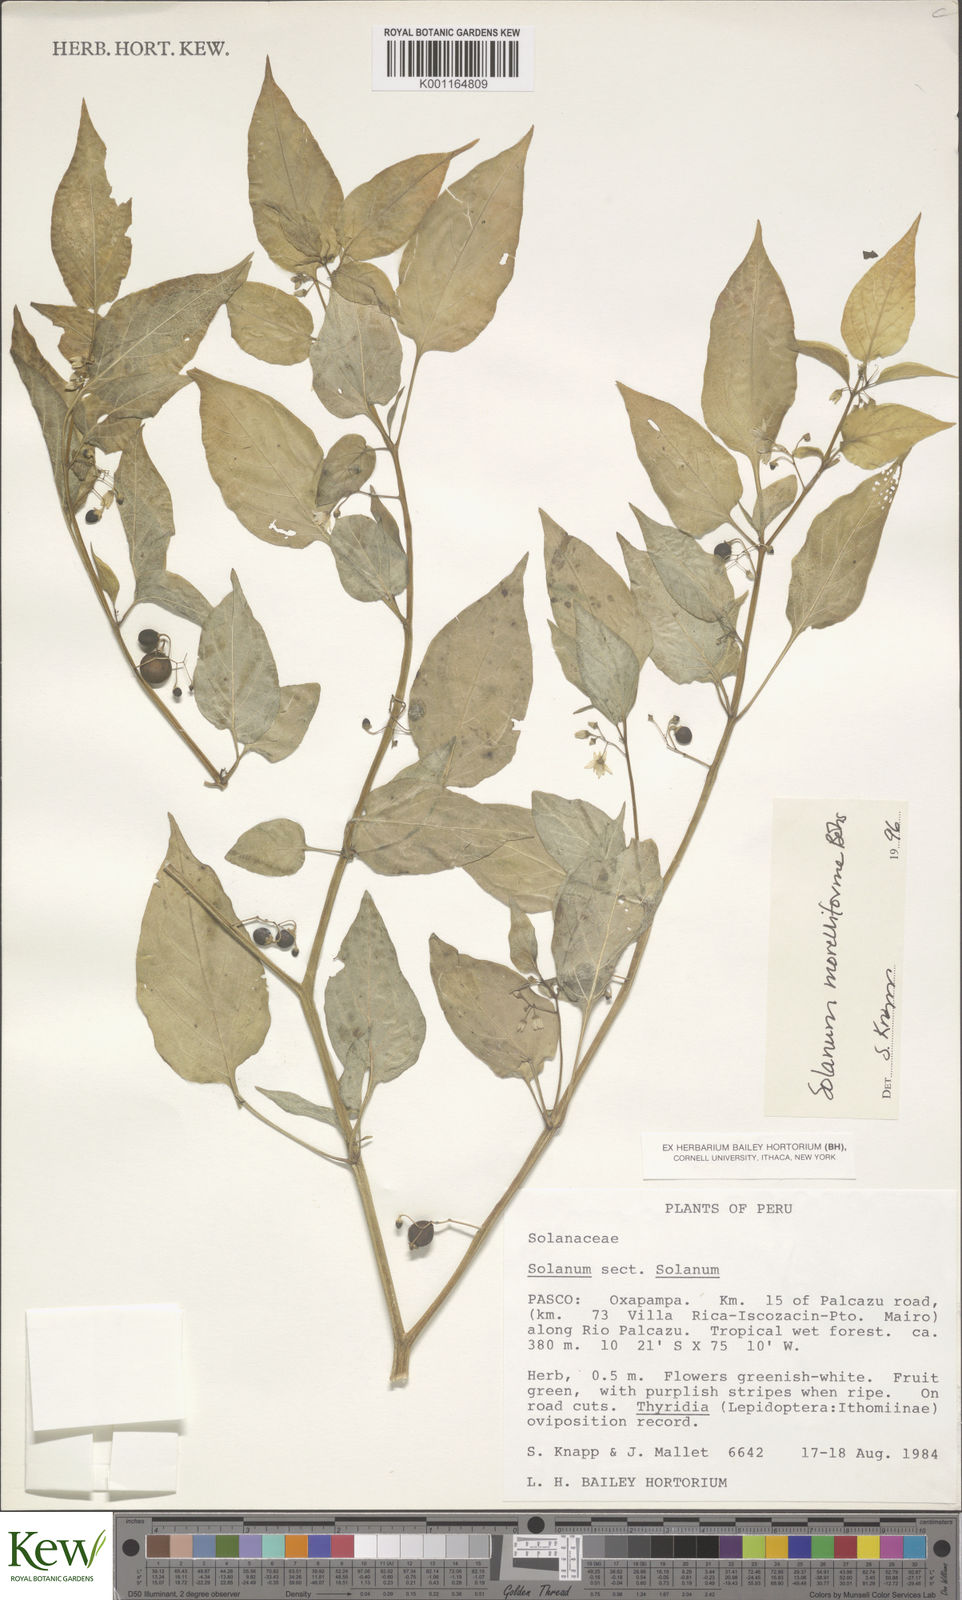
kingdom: Plantae
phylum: Tracheophyta
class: Magnoliopsida
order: Solanales
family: Solanaceae
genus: Solanum
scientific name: Solanum morelliforme
